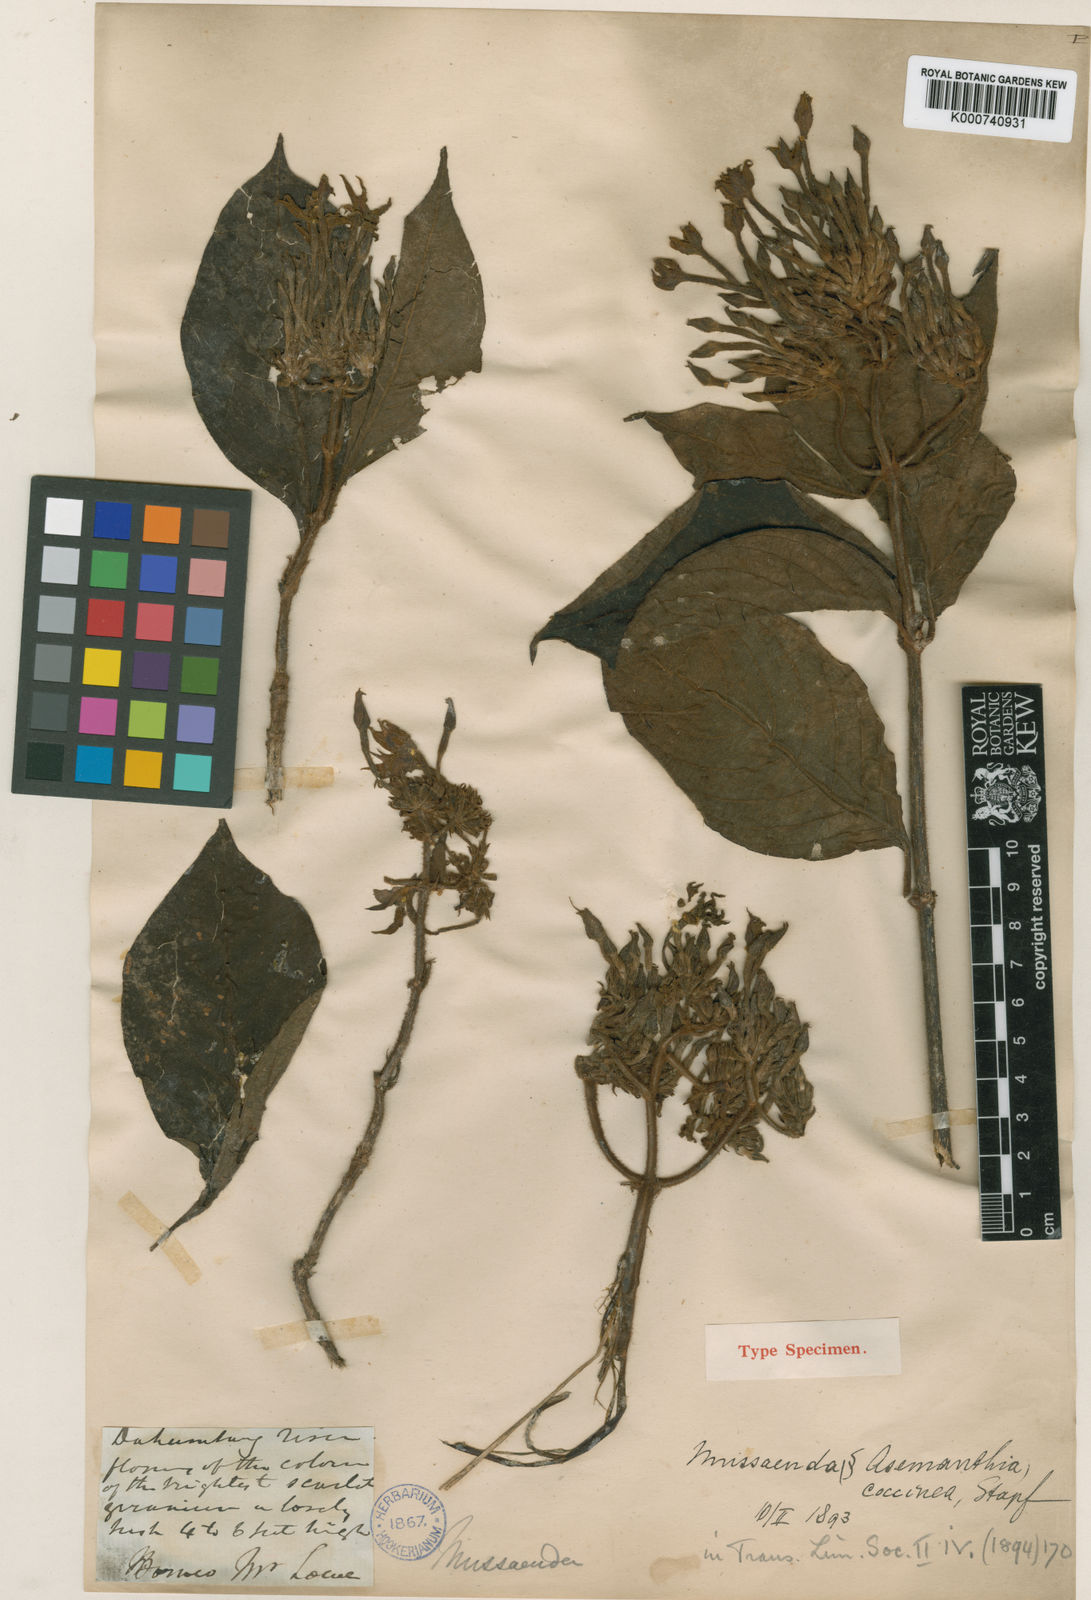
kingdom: Plantae
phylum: Tracheophyta
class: Magnoliopsida
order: Gentianales
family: Rubiaceae
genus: Mussaenda
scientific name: Mussaenda sabahensis
